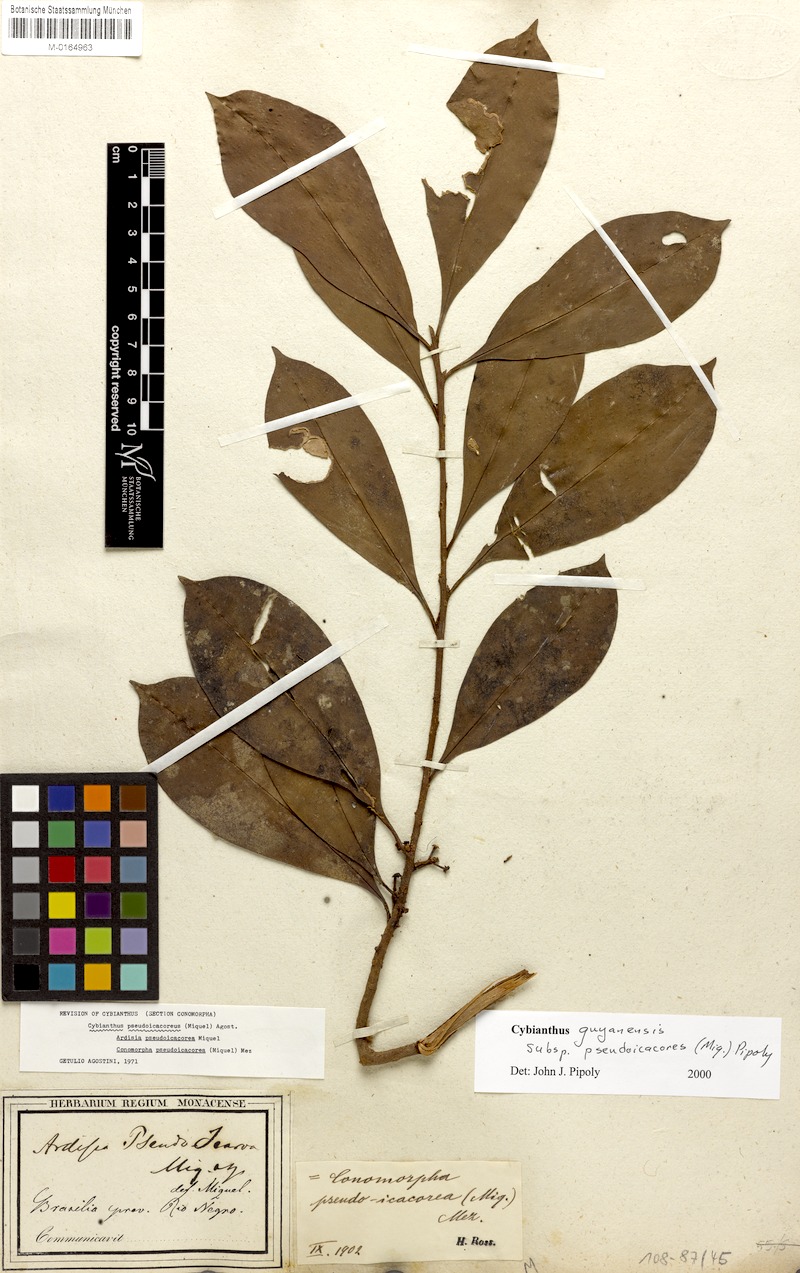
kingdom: Plantae
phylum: Tracheophyta
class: Magnoliopsida
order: Ericales
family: Primulaceae
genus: Cybianthus
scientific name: Cybianthus guyanensis
